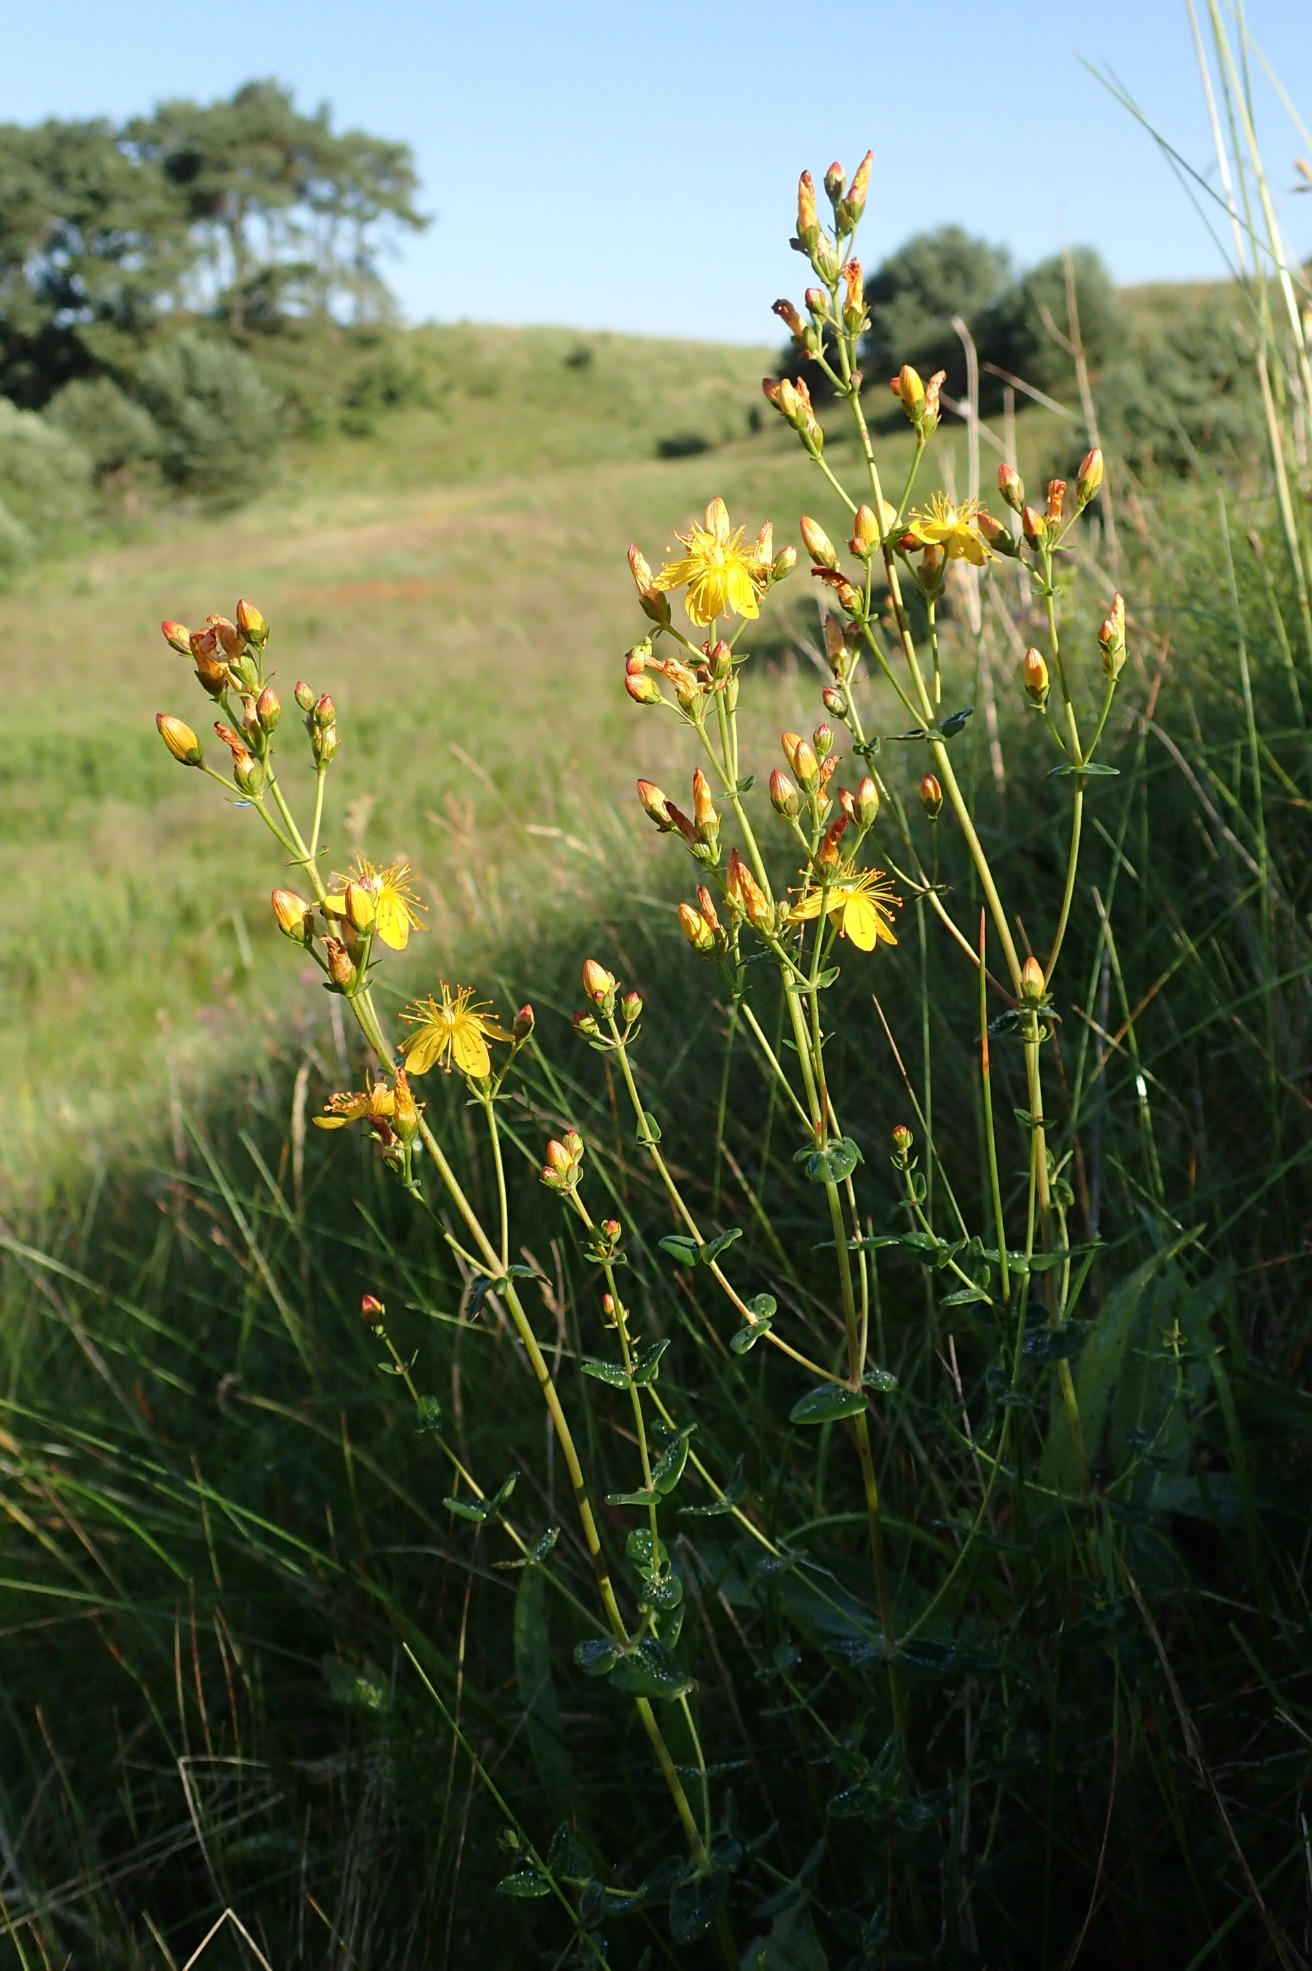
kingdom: Plantae
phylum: Tracheophyta
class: Magnoliopsida
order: Malpighiales
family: Hypericaceae
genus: Hypericum
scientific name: Hypericum pulchrum
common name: Smuk perikon
